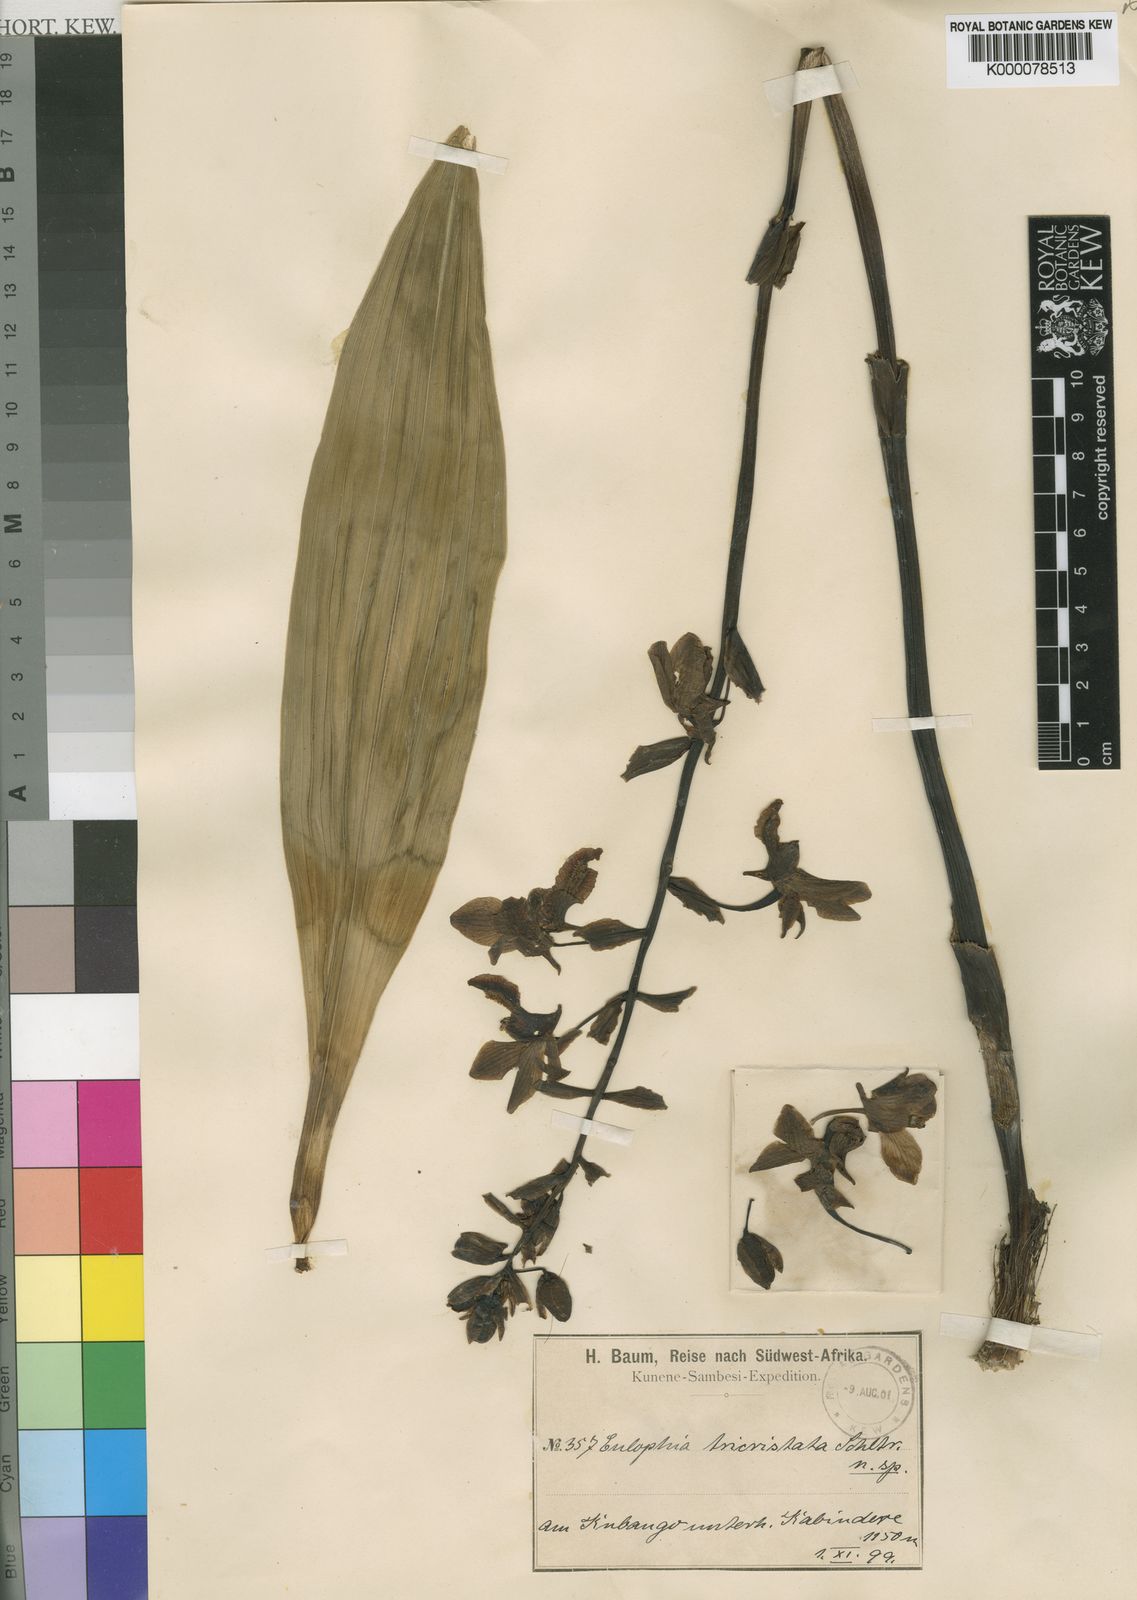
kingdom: Plantae
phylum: Tracheophyta
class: Liliopsida
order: Asparagales
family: Orchidaceae
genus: Eulophia
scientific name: Eulophia tricristata
